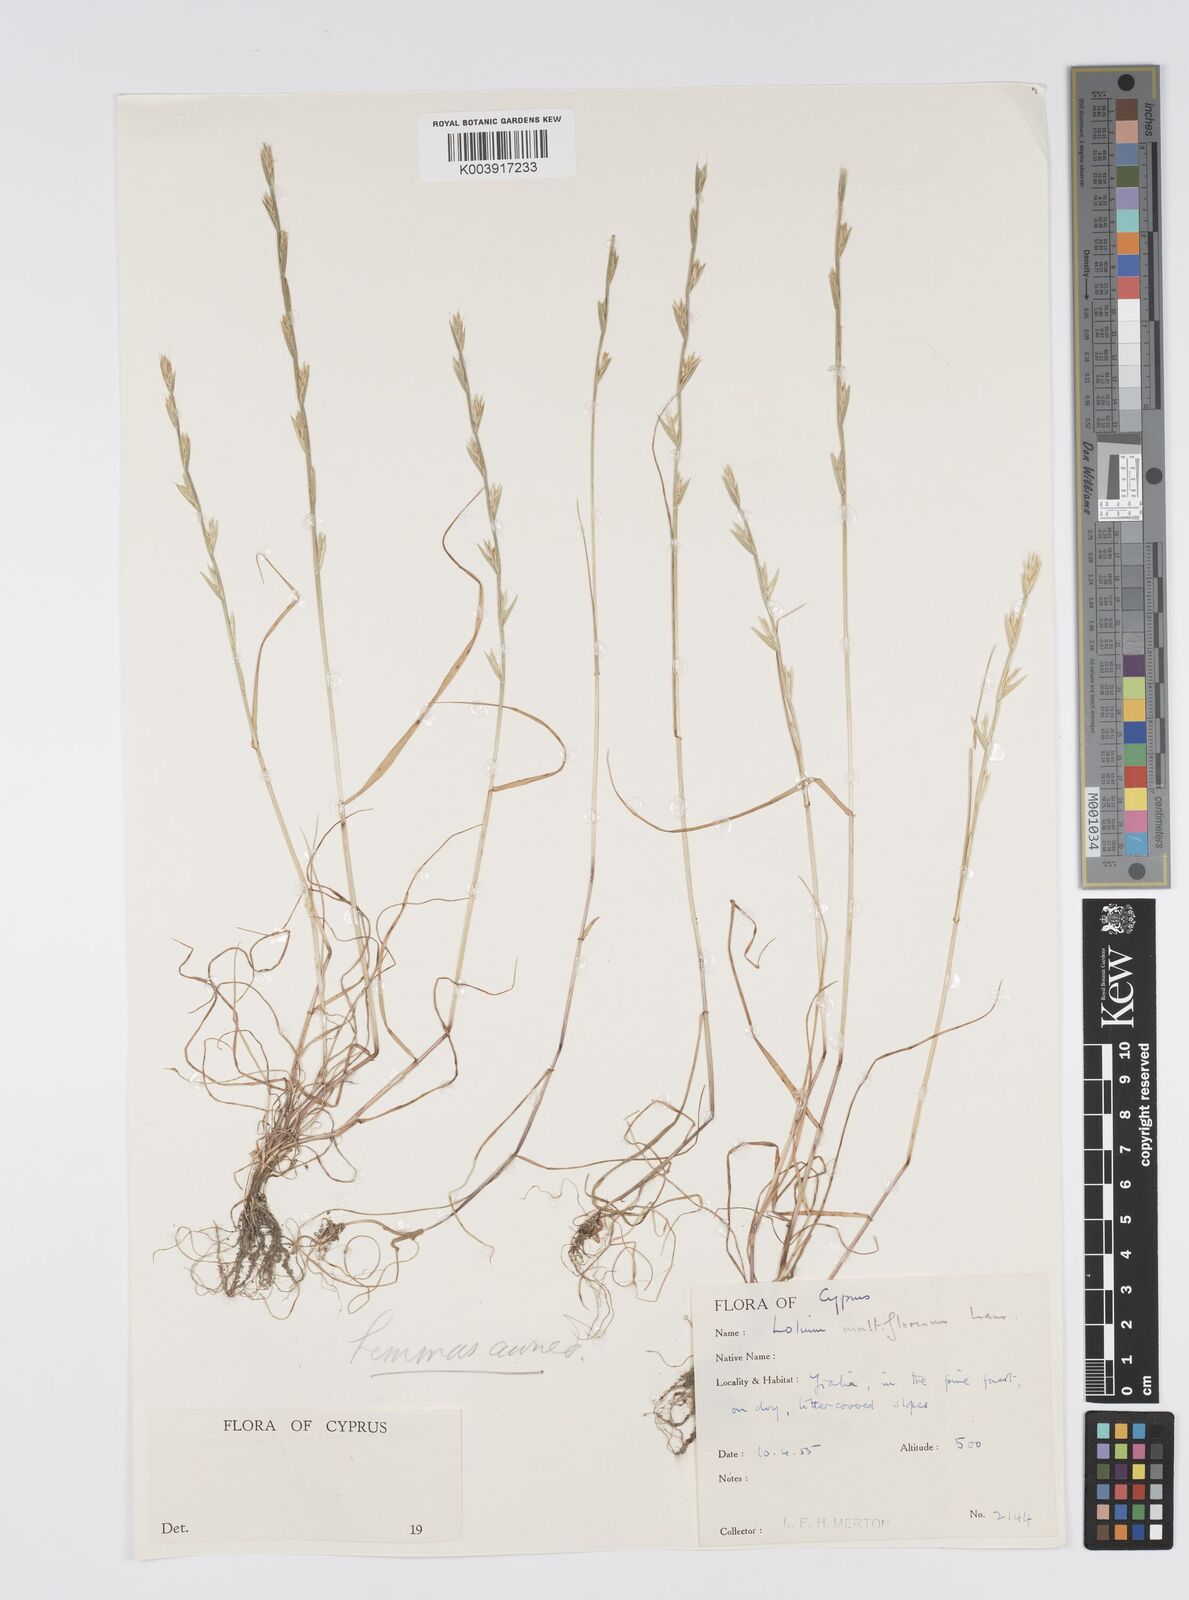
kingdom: Plantae
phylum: Tracheophyta
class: Liliopsida
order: Poales
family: Poaceae
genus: Lolium
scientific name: Lolium rigidum
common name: Wimmera ryegrass
